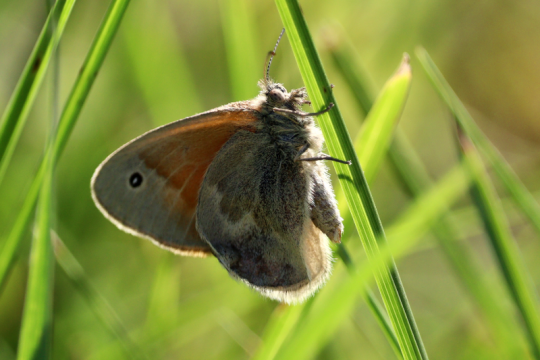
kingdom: Animalia
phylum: Arthropoda
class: Insecta
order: Lepidoptera
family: Nymphalidae
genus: Coenonympha
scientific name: Coenonympha california
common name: California Ringlet
